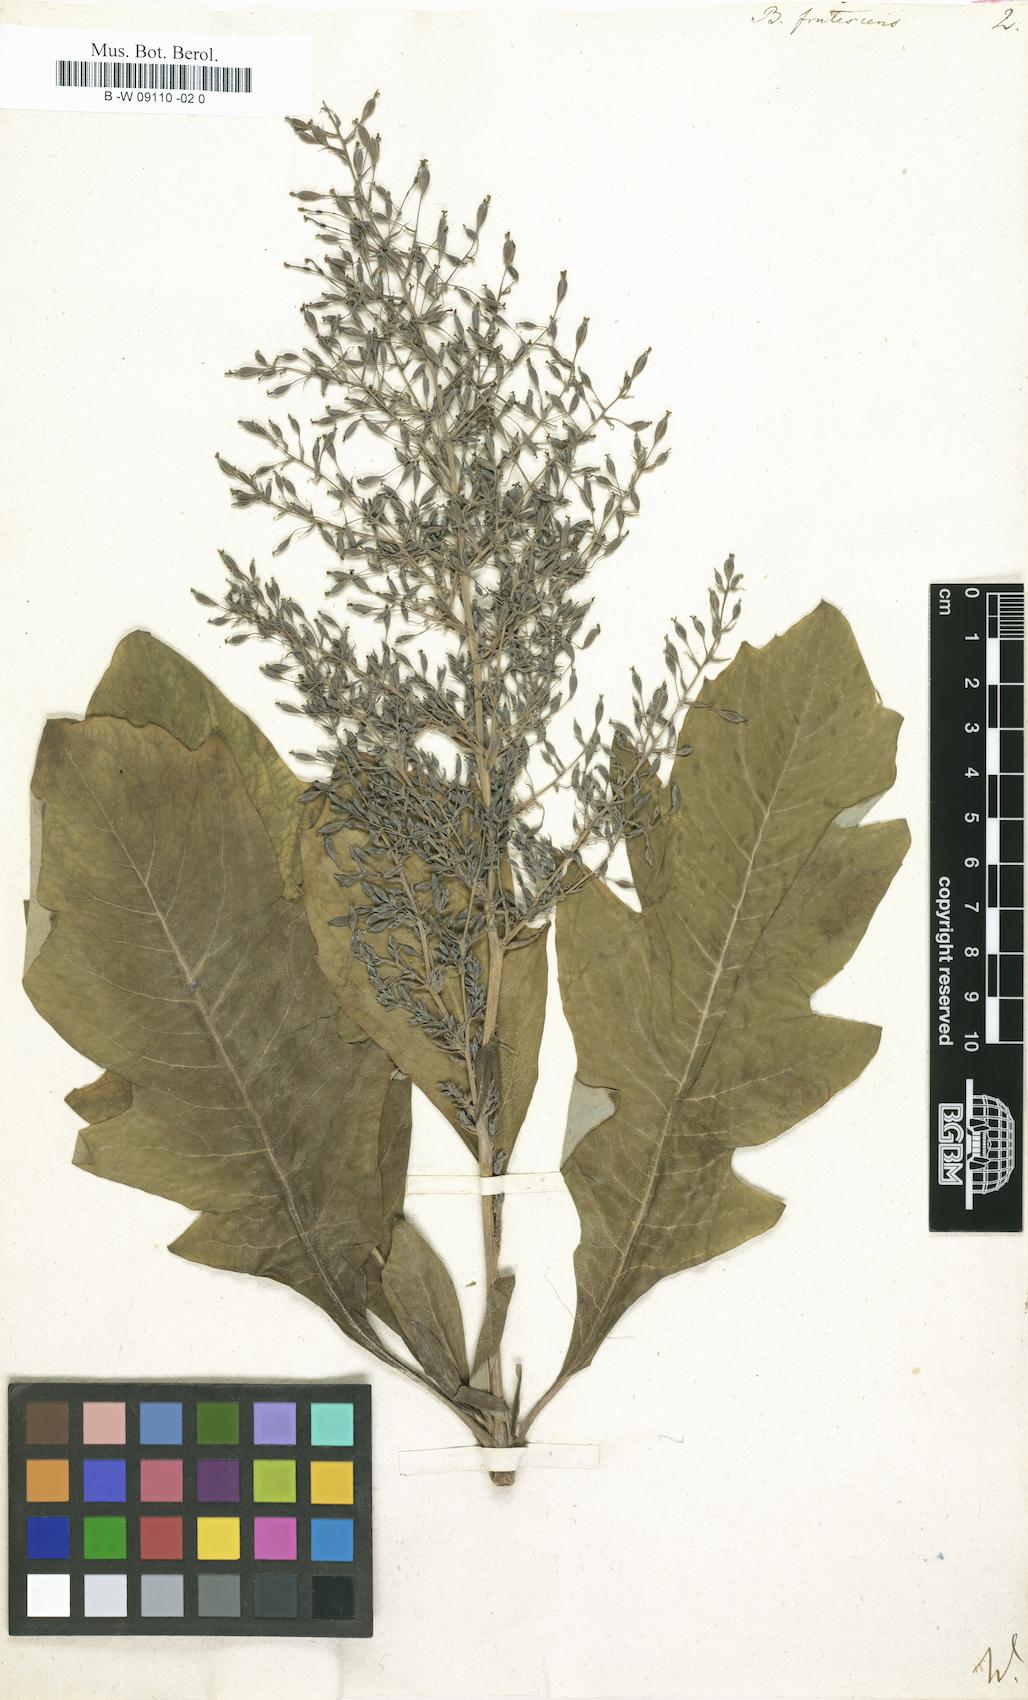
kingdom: Plantae
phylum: Tracheophyta
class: Magnoliopsida
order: Ranunculales
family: Papaveraceae
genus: Bocconia
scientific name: Bocconia frutescens
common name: Tree poppy
